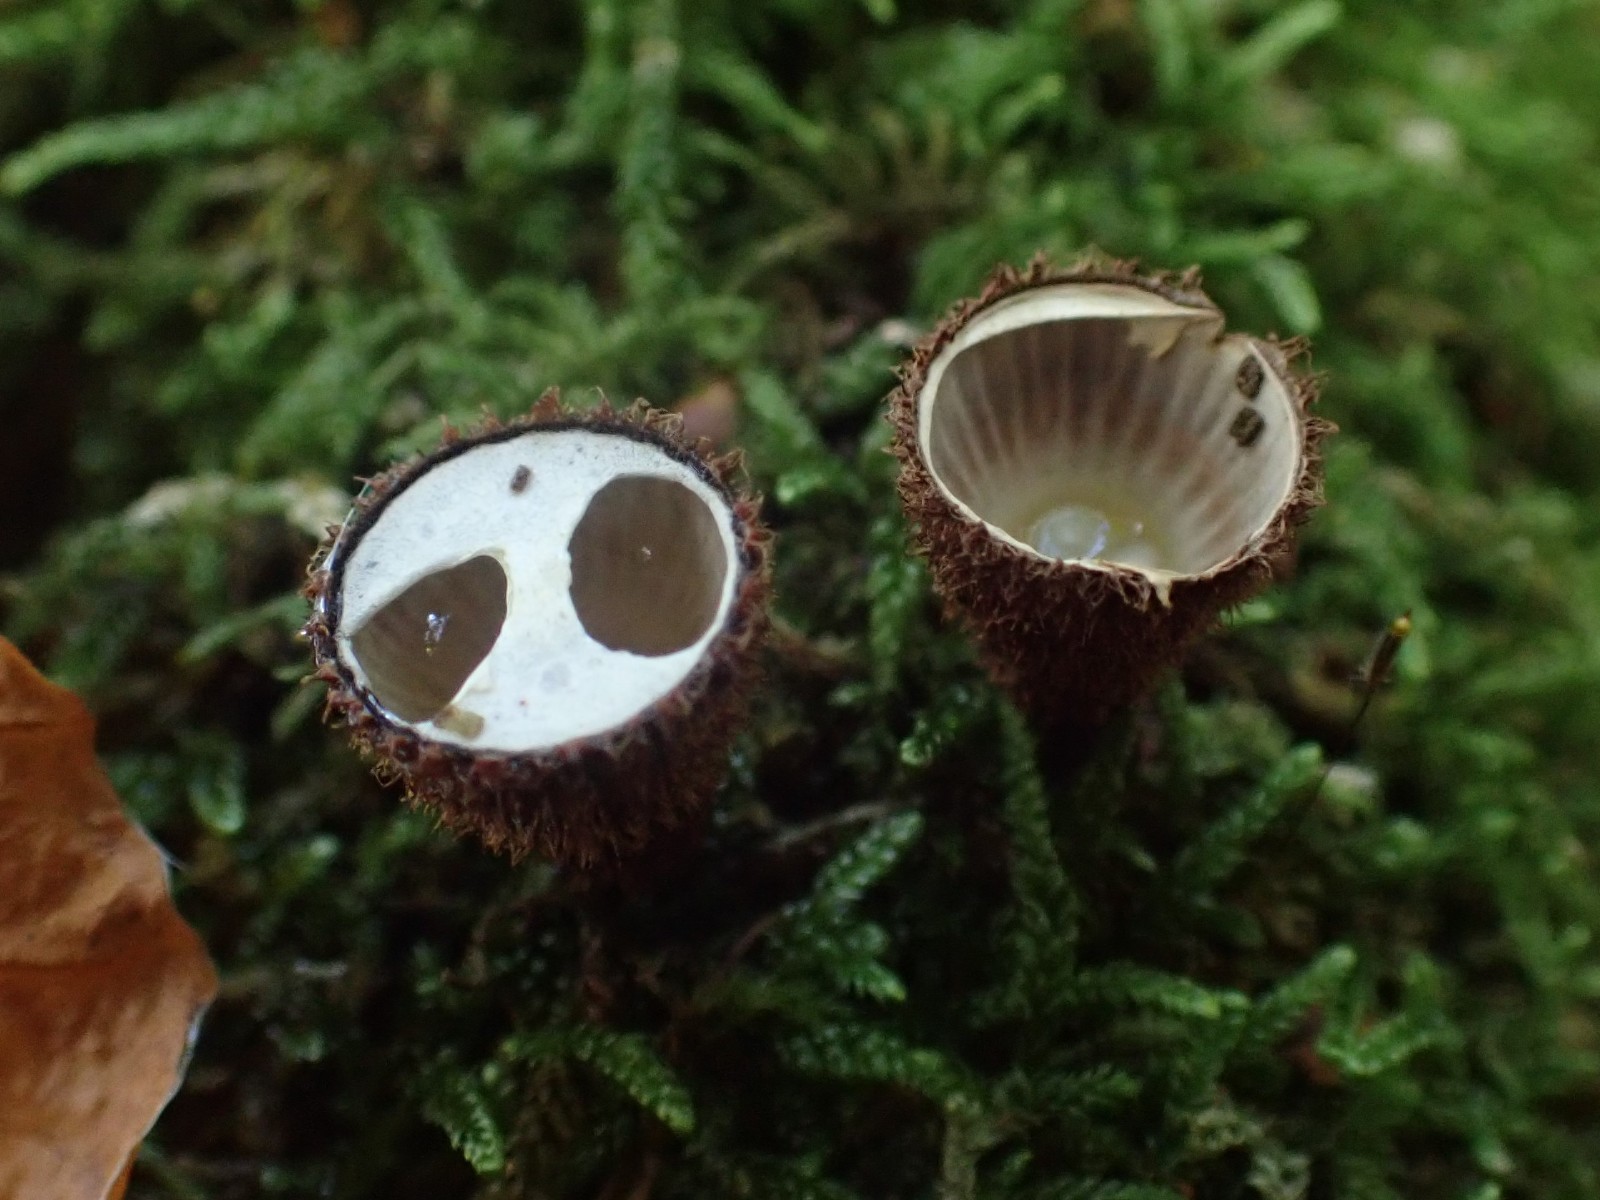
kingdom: Fungi
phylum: Basidiomycota
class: Agaricomycetes
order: Agaricales
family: Agaricaceae
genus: Cyathus
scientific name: Cyathus striatus
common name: stribet redesvamp
